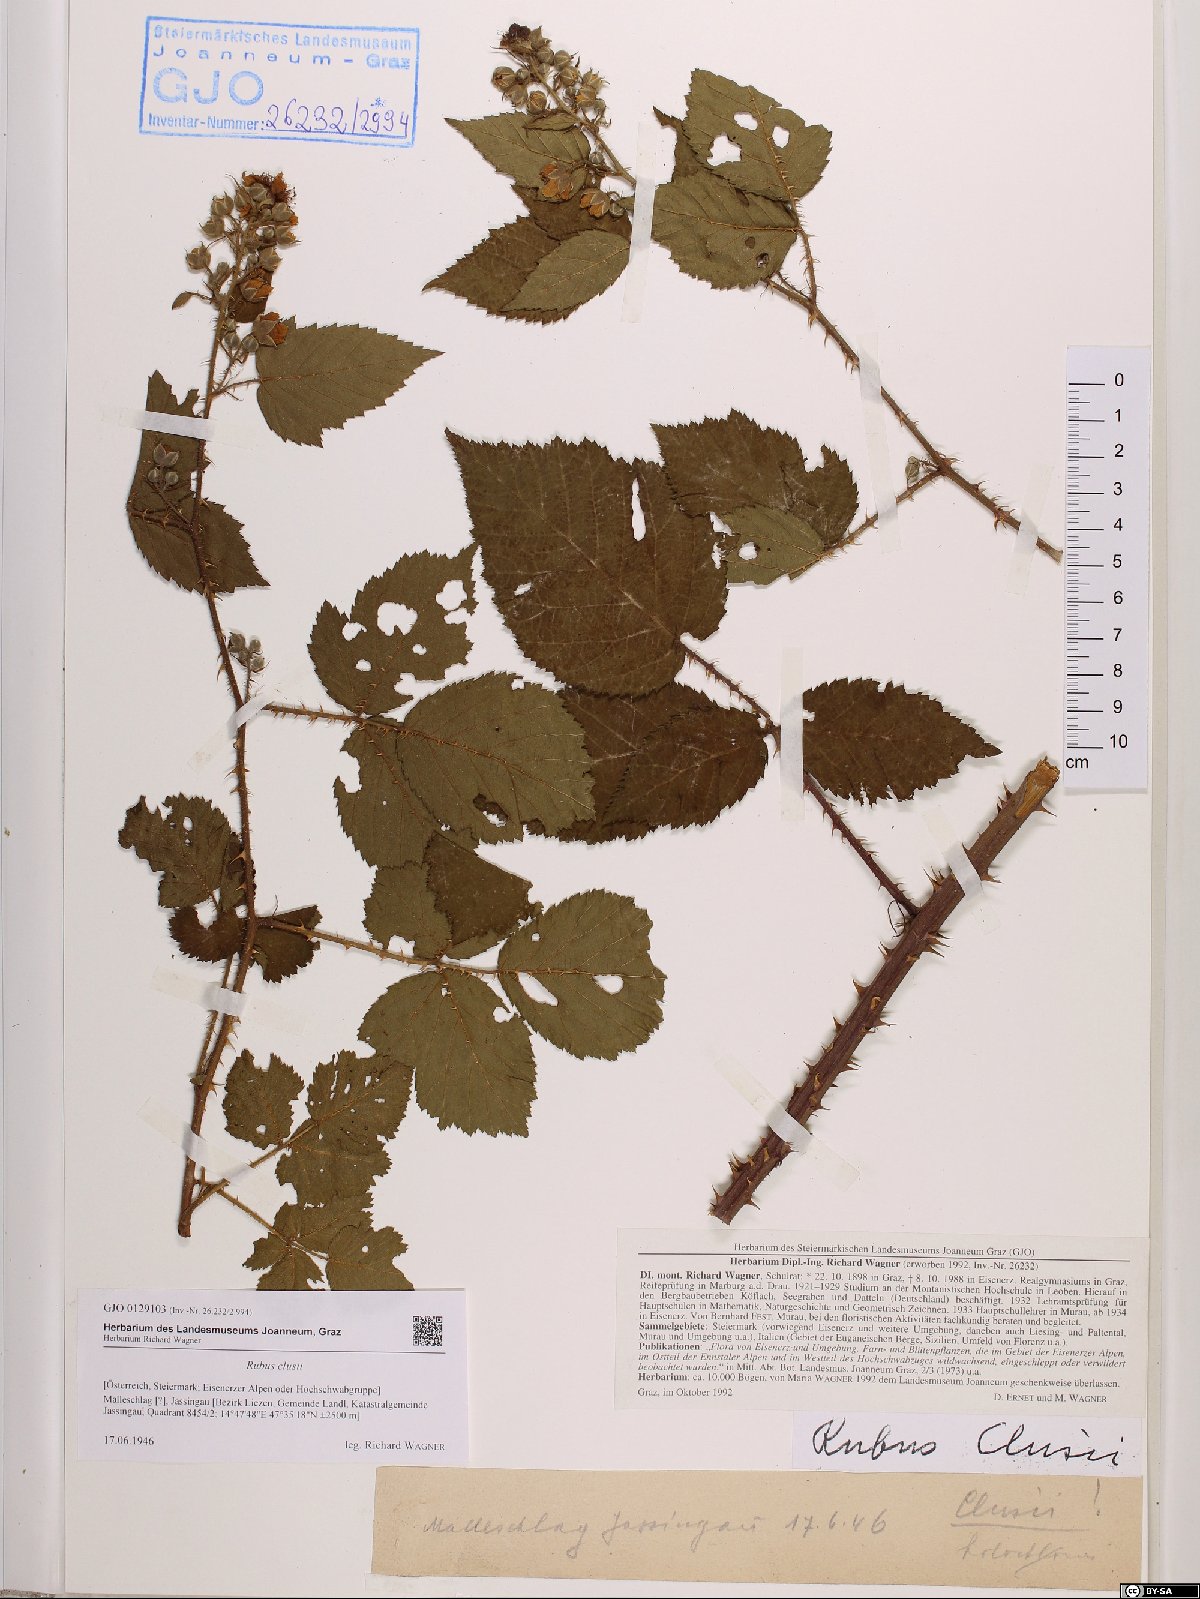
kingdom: Plantae
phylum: Tracheophyta
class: Magnoliopsida
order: Rosales
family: Rosaceae
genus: Rubus
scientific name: Rubus clusii
